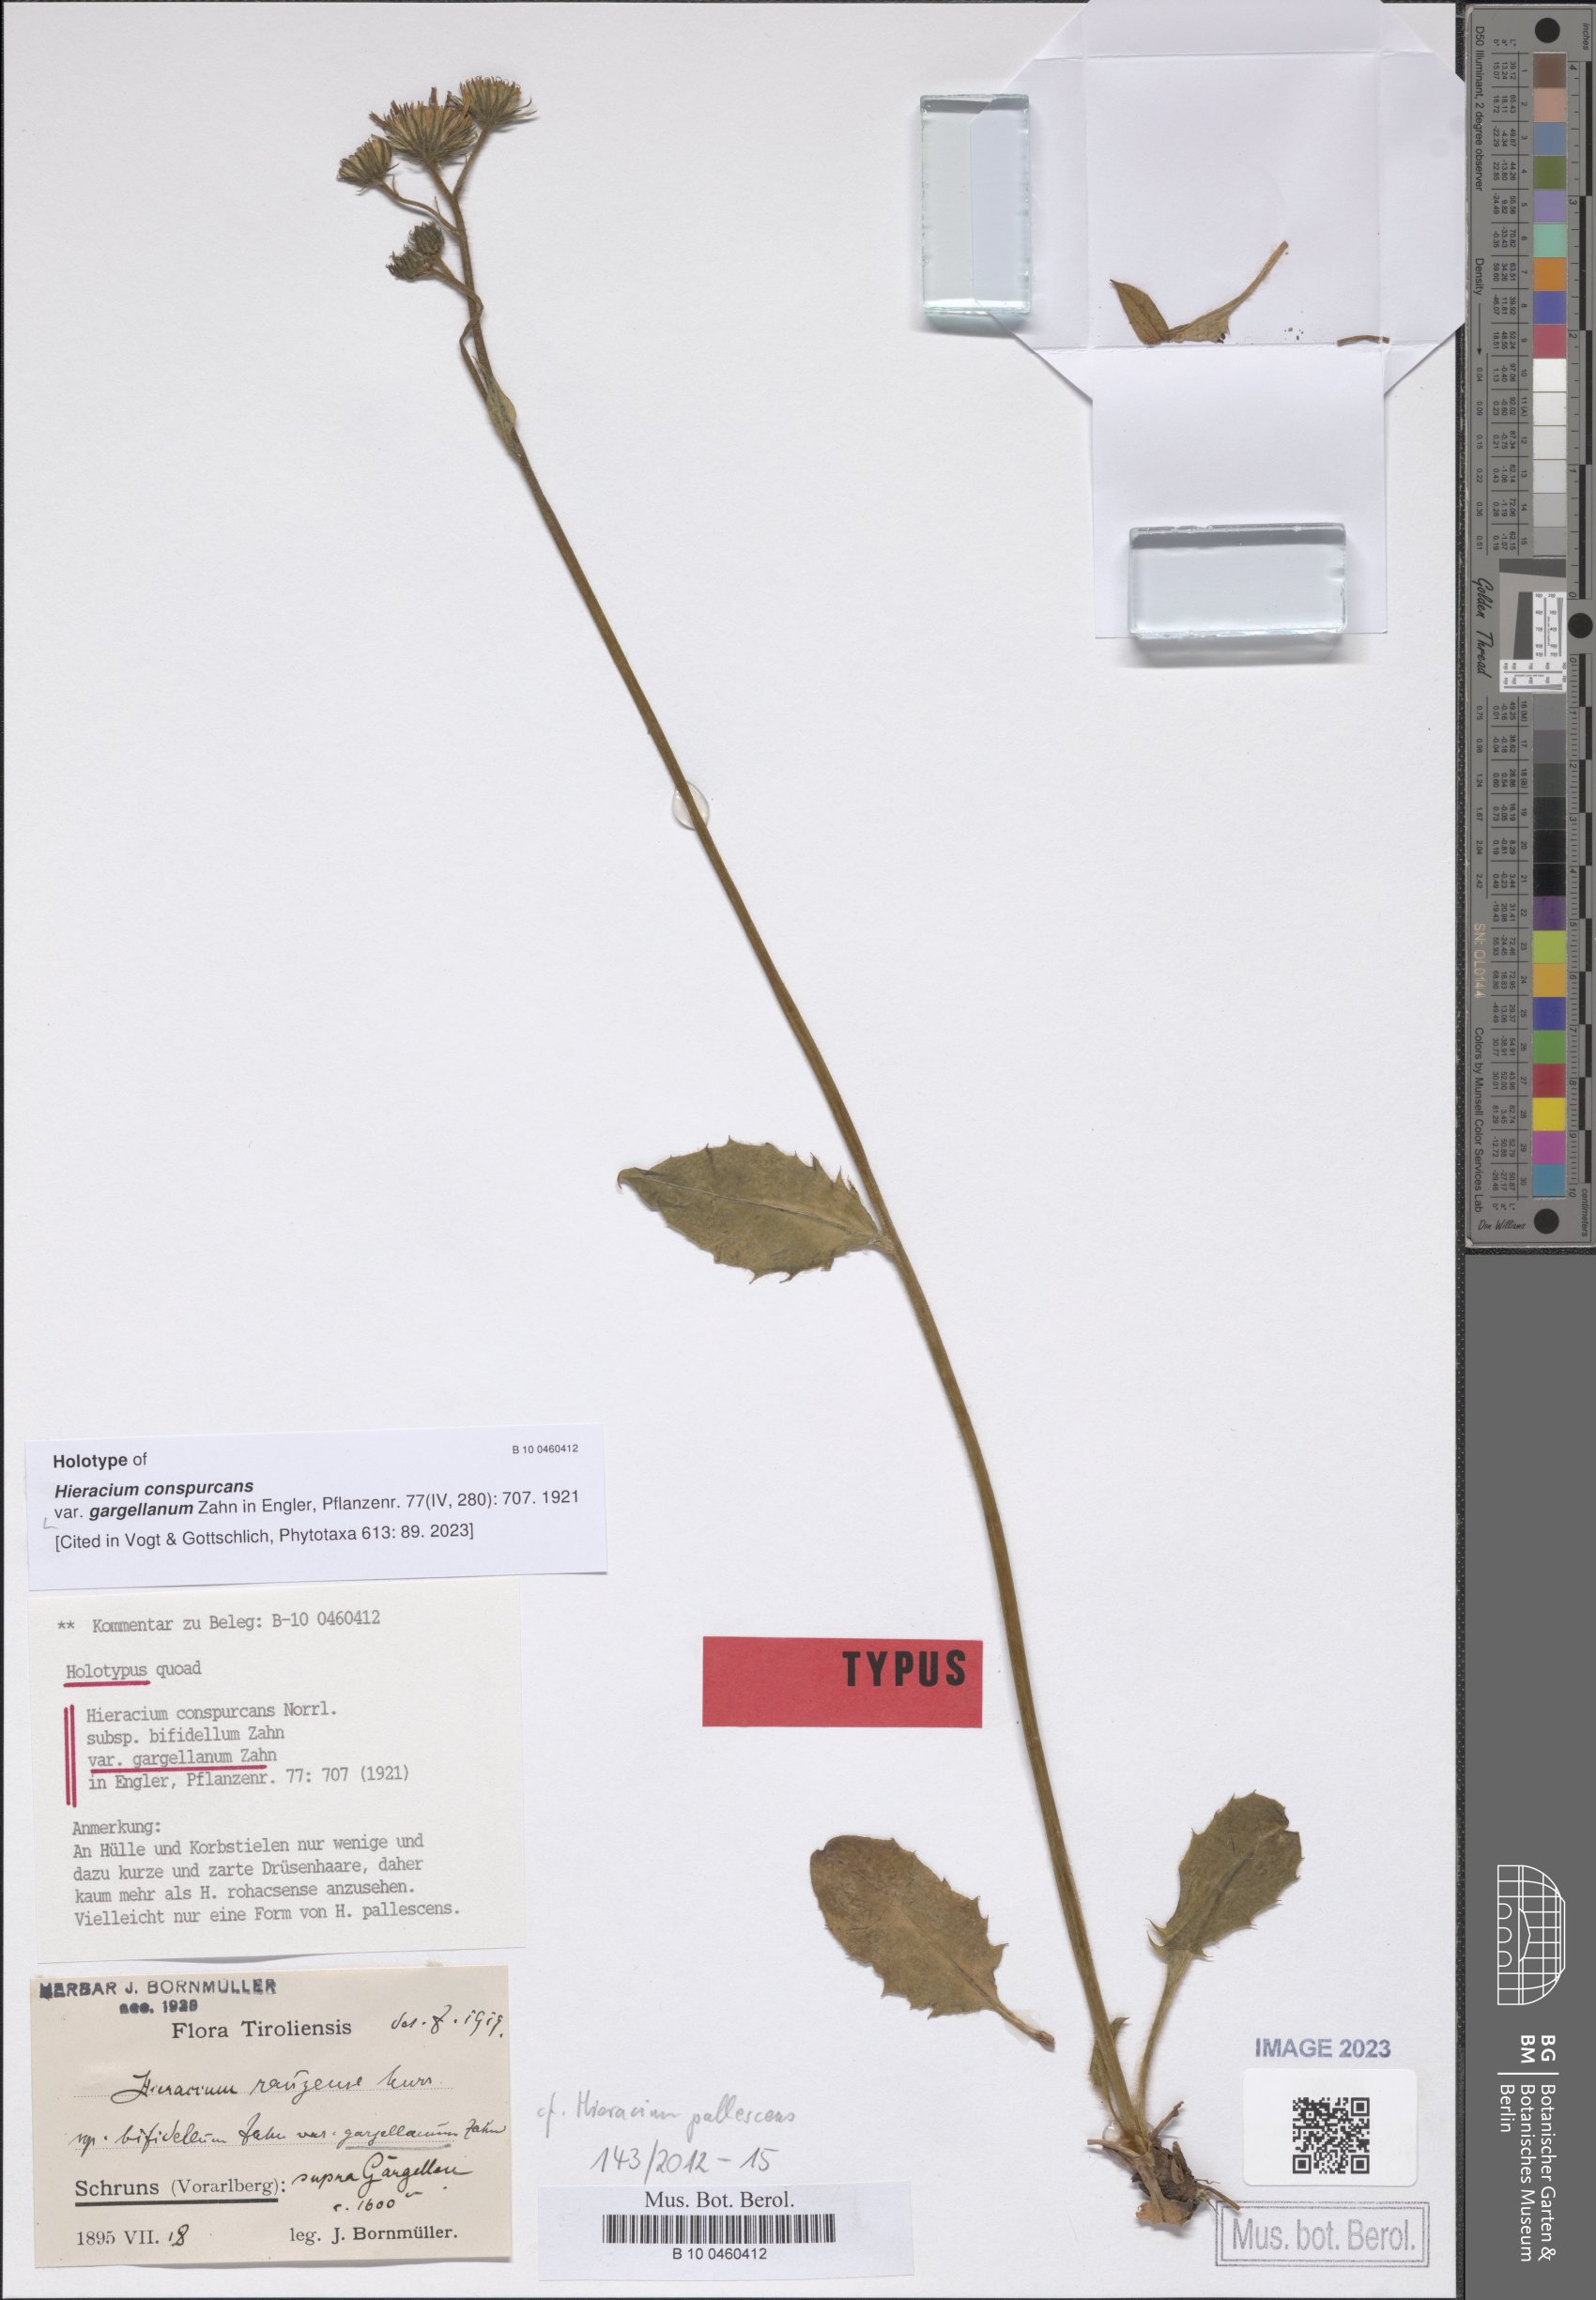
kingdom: Plantae
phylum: Tracheophyta
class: Magnoliopsida
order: Asterales
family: Asteraceae
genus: Hieracium
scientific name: Hieracium conspurcans
